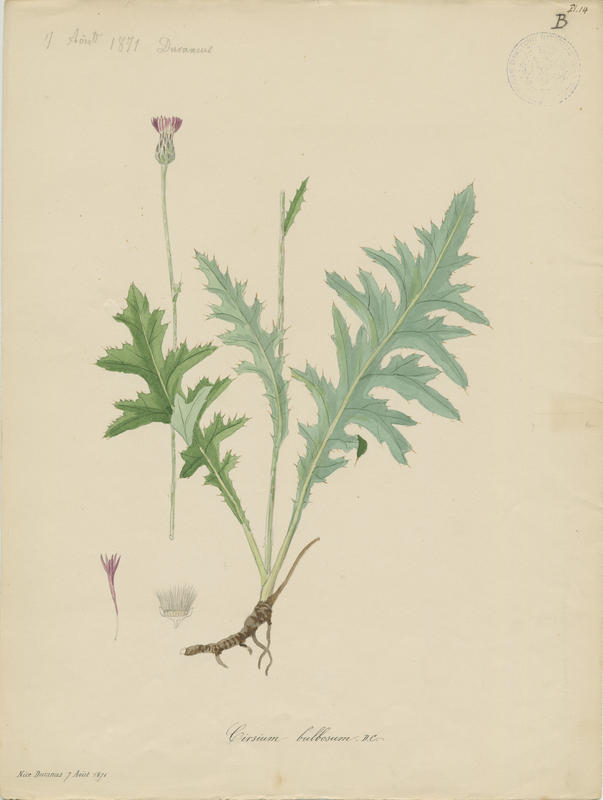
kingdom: Plantae
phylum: Tracheophyta
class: Magnoliopsida
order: Asterales
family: Asteraceae
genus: Cirsium
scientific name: Cirsium filipendulum
